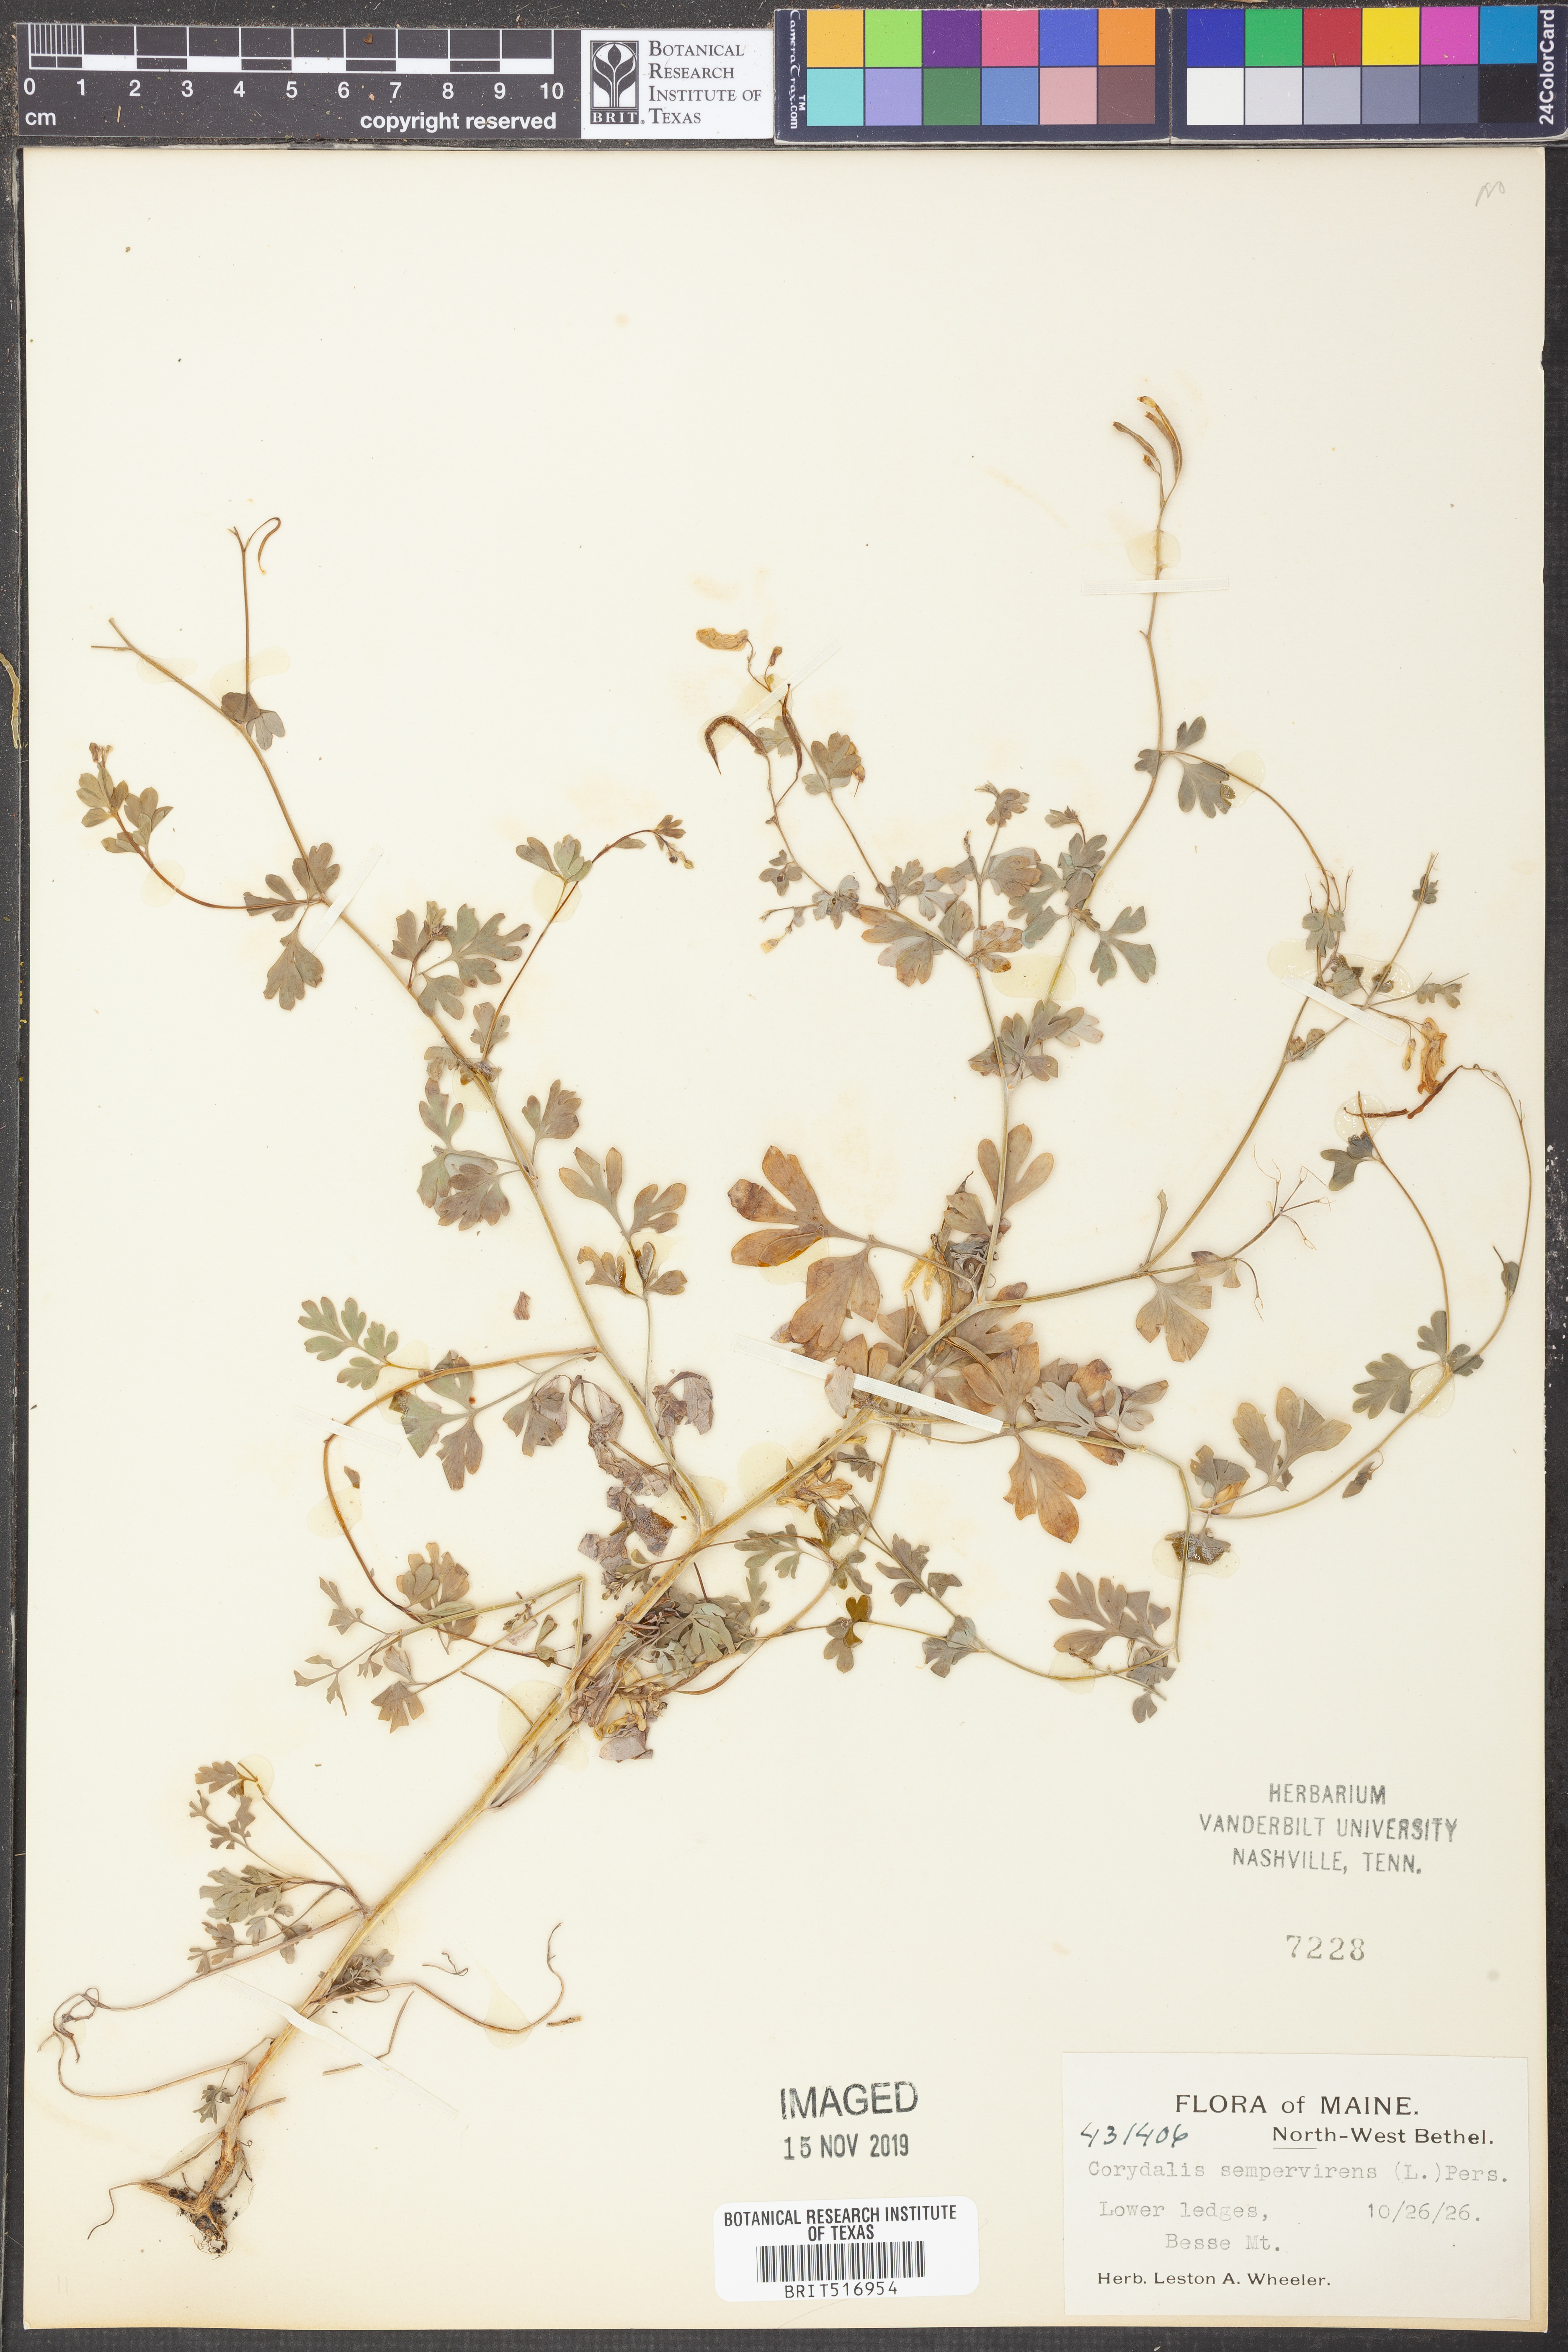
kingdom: Plantae
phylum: Tracheophyta
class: Magnoliopsida
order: Ranunculales
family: Papaveraceae
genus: Capnoides
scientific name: Capnoides sempervirens
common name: Rock harlequin
